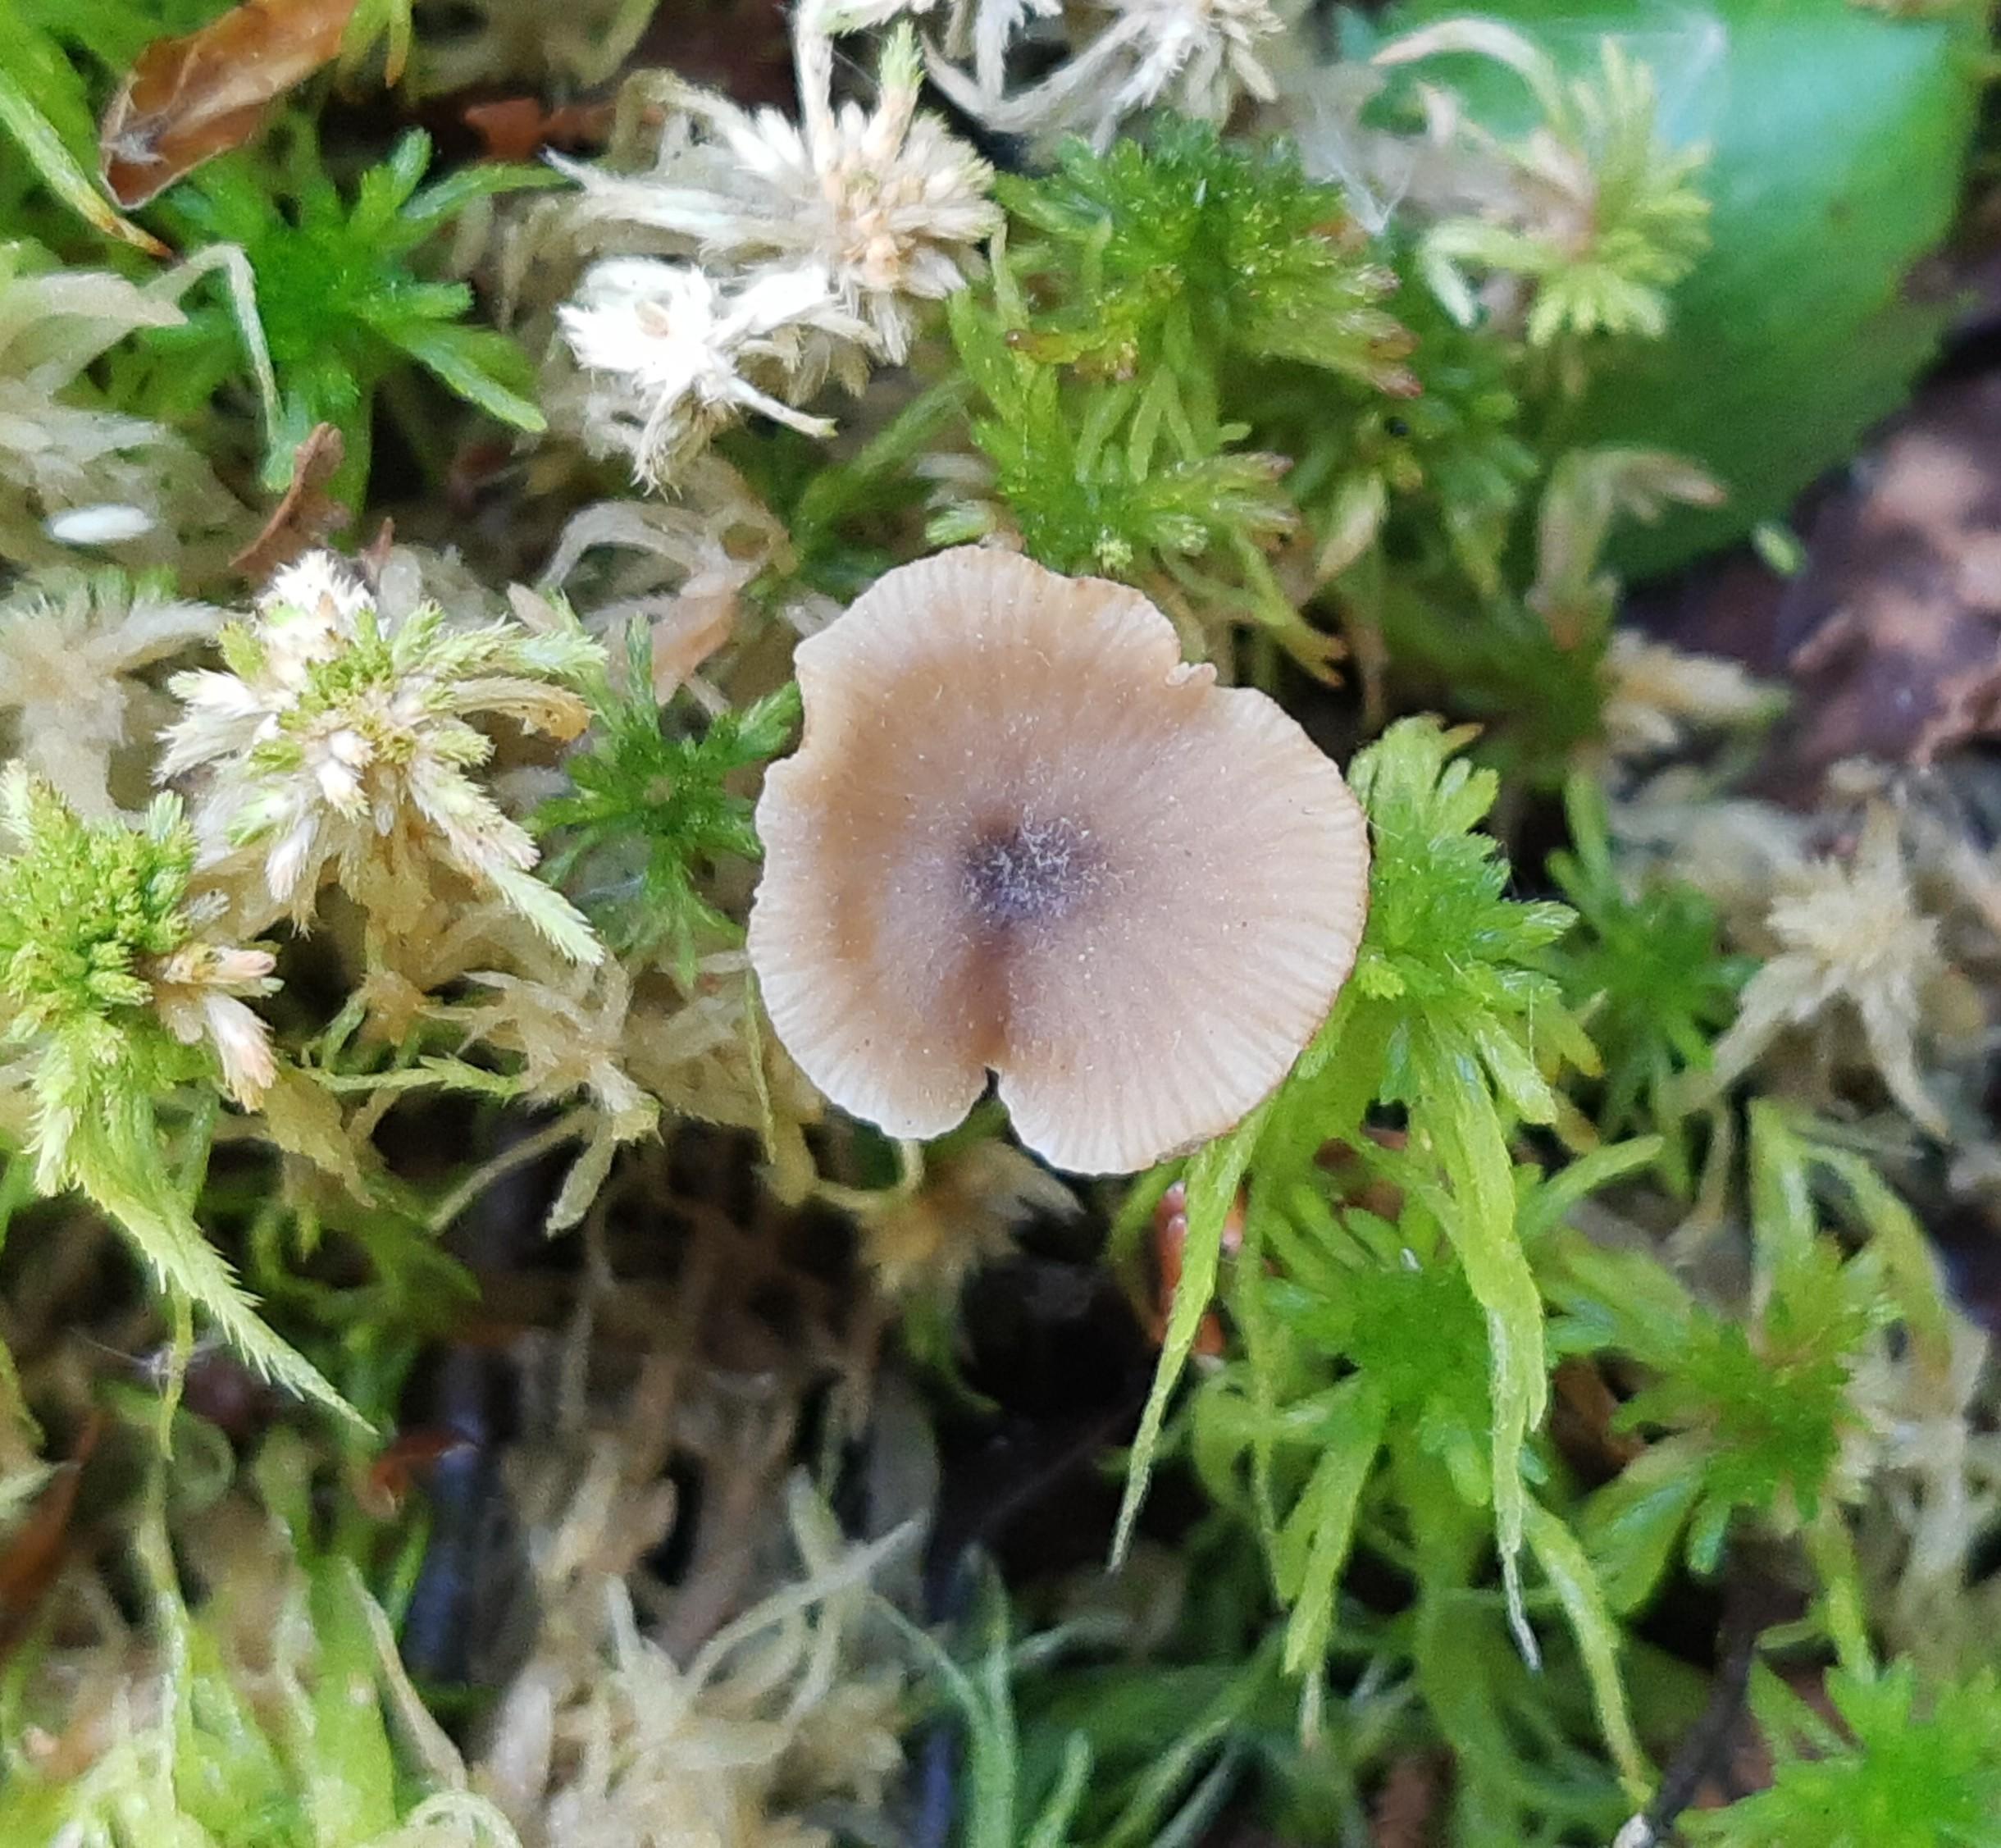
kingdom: Fungi
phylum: Basidiomycota
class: Agaricomycetes
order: Agaricales
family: Lyophyllaceae
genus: Sphagnurus
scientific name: Sphagnurus paluster
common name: tørvemos-gråblad
